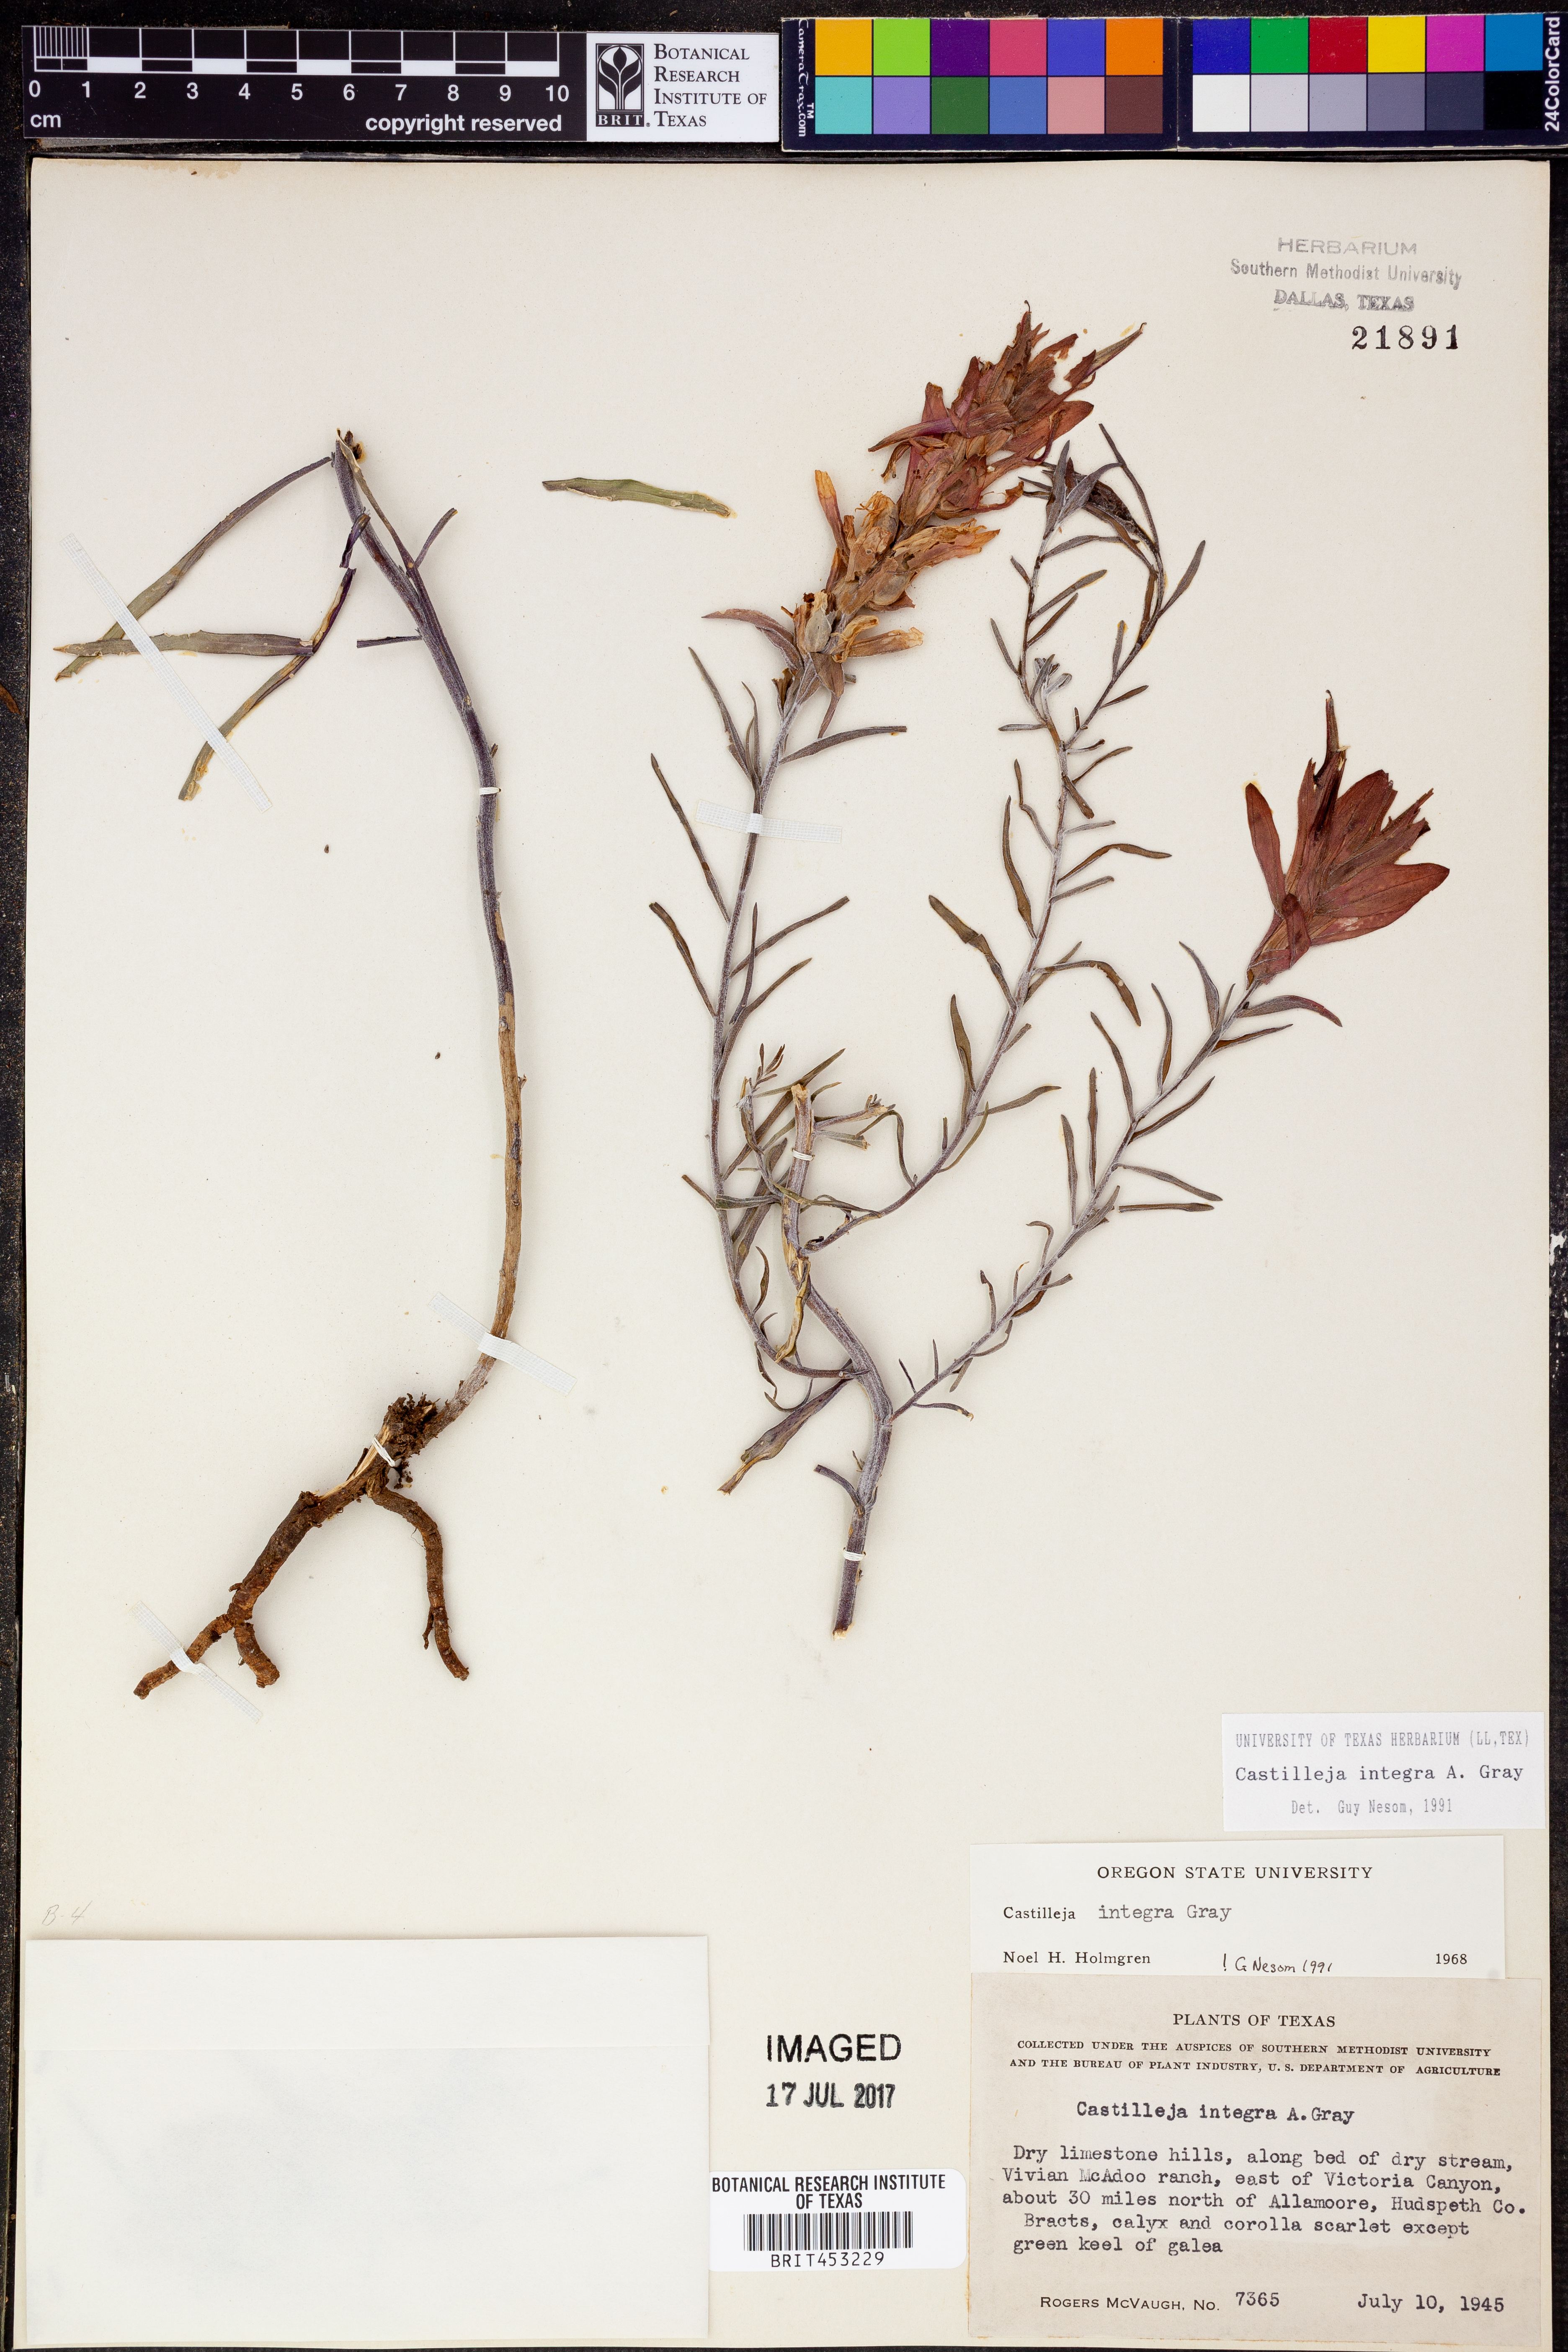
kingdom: Plantae
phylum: Tracheophyta
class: Magnoliopsida
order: Lamiales
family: Orobanchaceae
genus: Castilleja
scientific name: Castilleja integra
